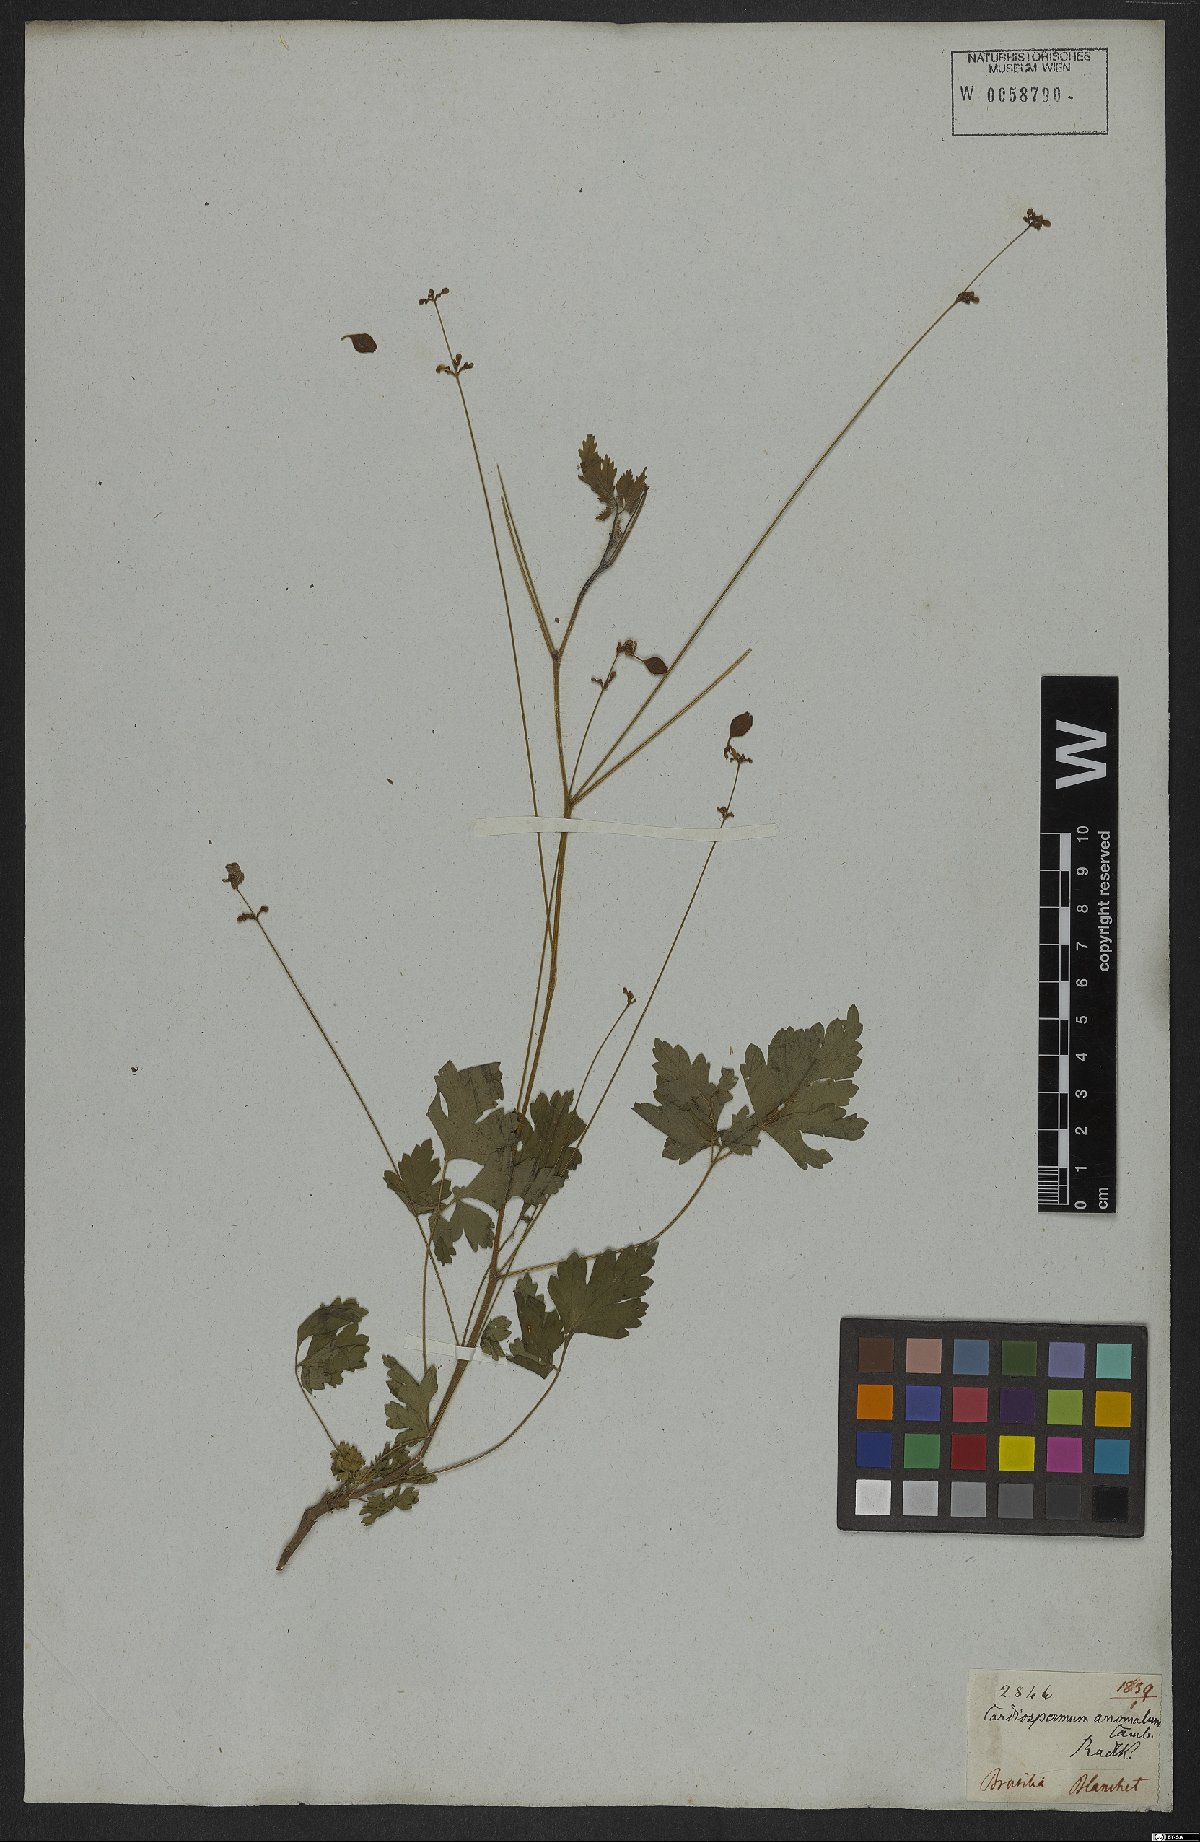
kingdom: Plantae
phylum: Tracheophyta
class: Magnoliopsida
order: Sapindales
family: Sapindaceae
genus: Cardiospermum
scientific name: Cardiospermum anomalum
